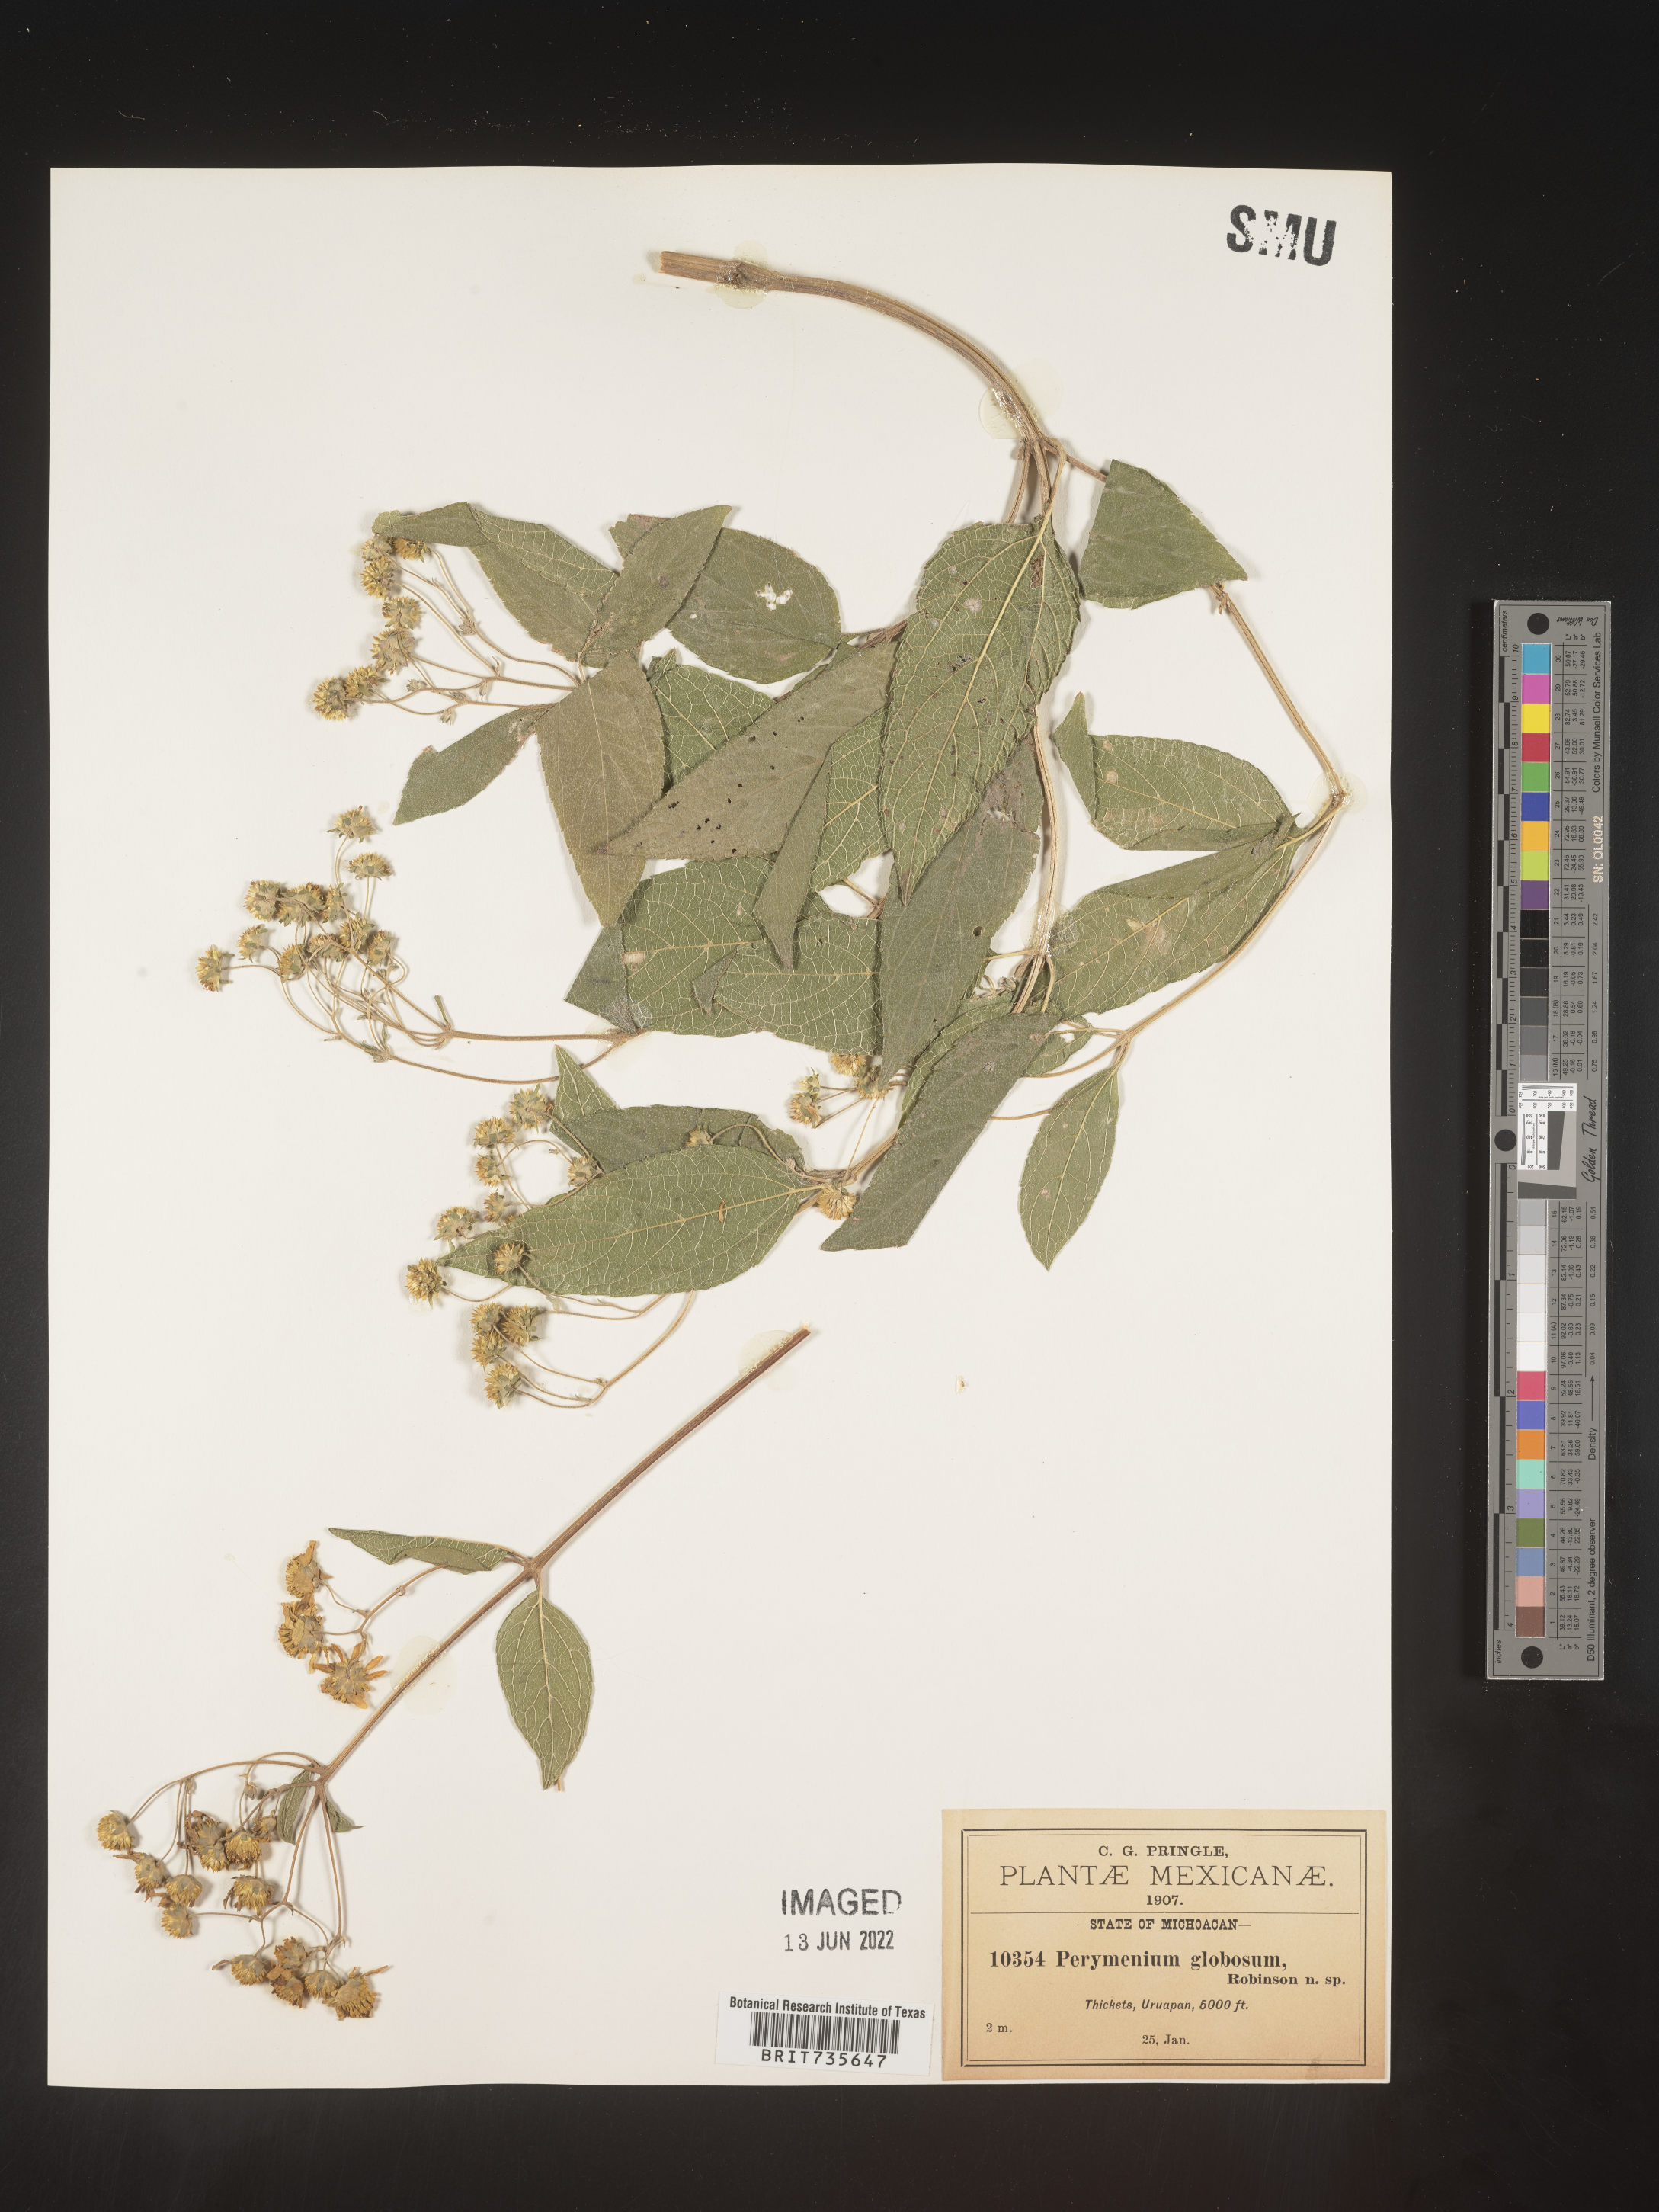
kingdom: Plantae
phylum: Tracheophyta
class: Magnoliopsida
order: Asterales
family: Asteraceae
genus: Perymenium
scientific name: Perymenium
